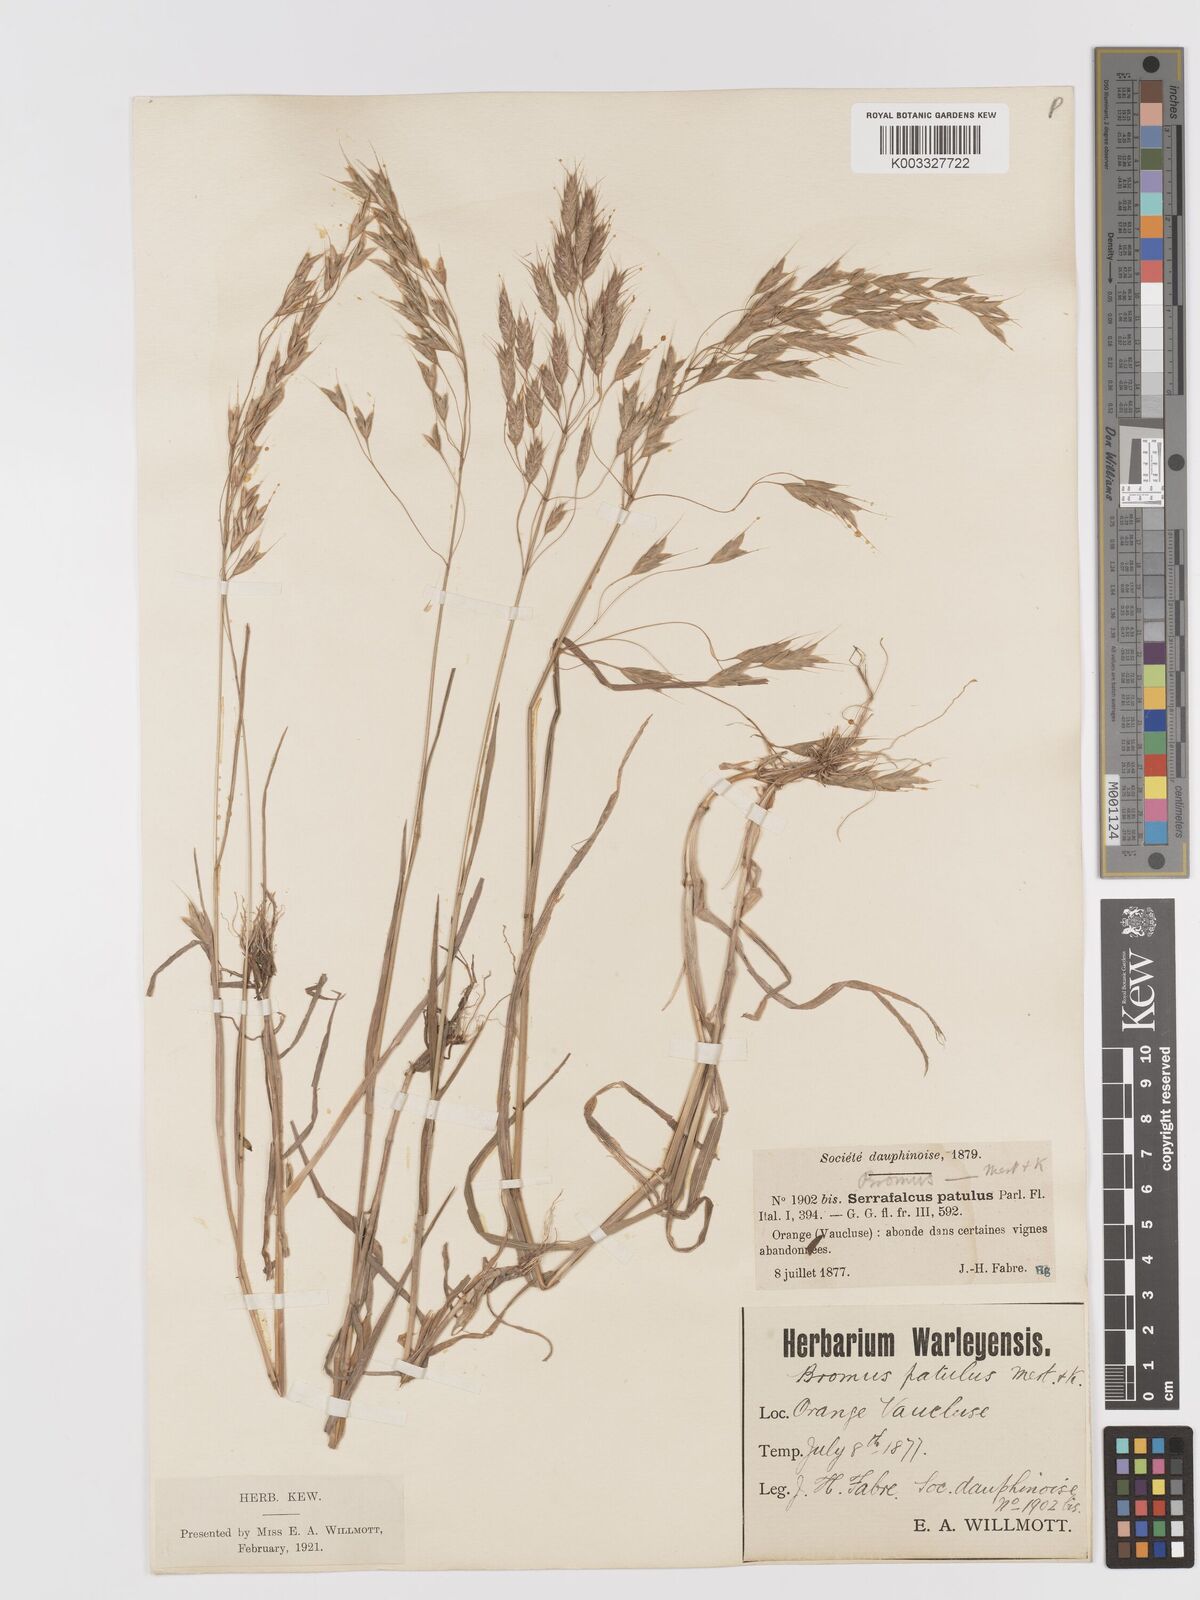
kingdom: Plantae
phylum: Tracheophyta
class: Liliopsida
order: Poales
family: Poaceae
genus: Bromus
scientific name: Bromus japonicus
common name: Japanese brome
